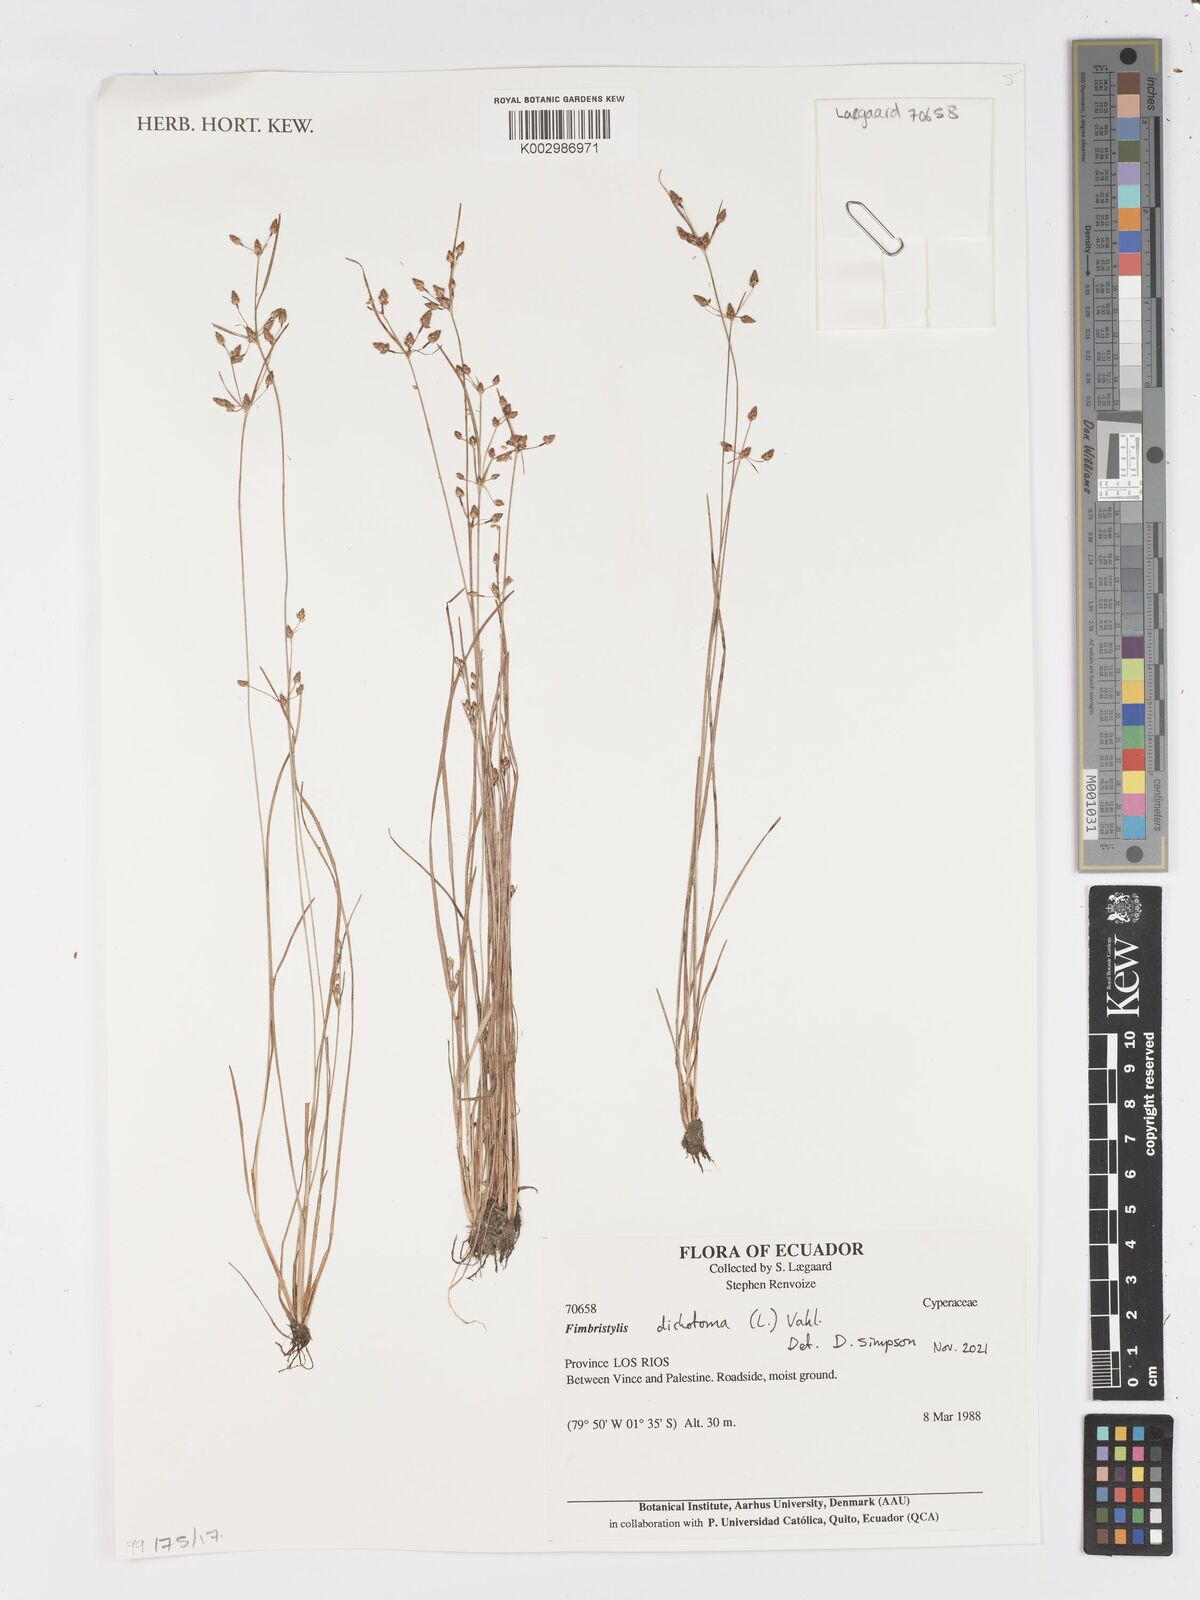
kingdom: Plantae
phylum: Tracheophyta
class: Liliopsida
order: Poales
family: Cyperaceae
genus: Fimbristylis
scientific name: Fimbristylis dichotoma
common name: Forked fimbry
